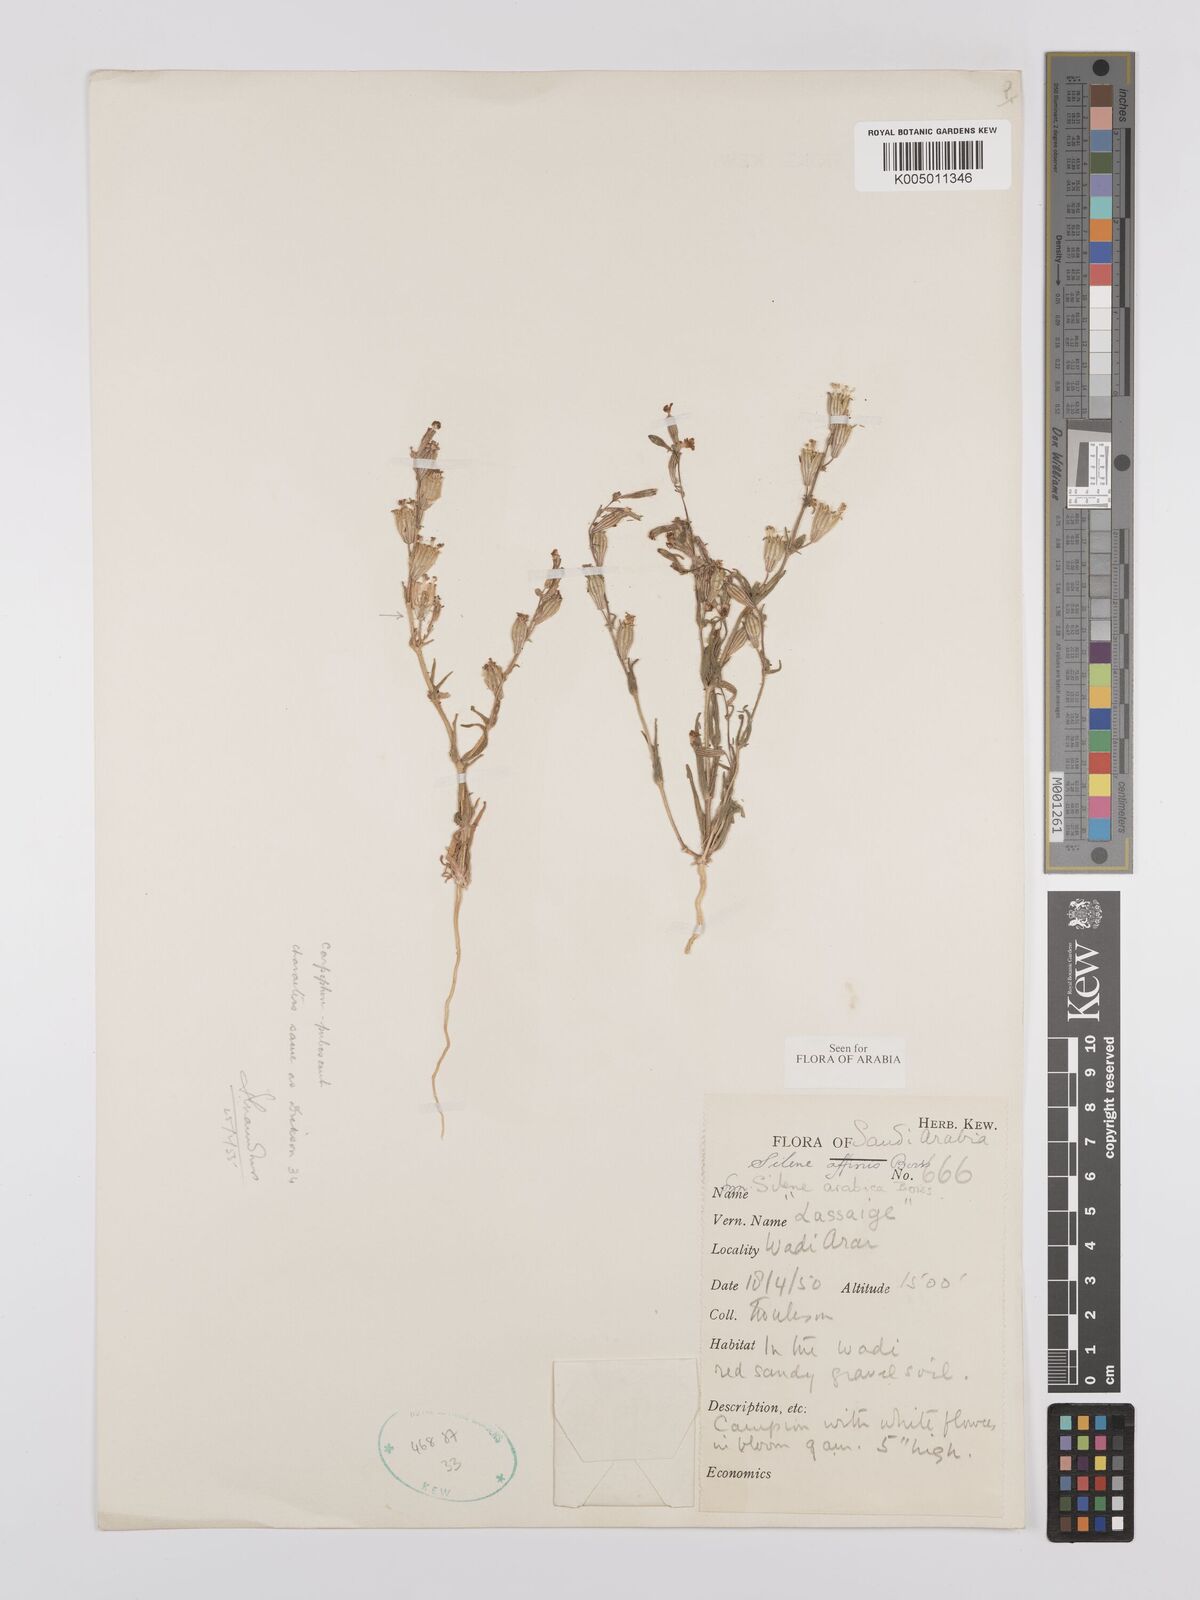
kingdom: Plantae
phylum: Tracheophyta
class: Magnoliopsida
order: Caryophyllales
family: Caryophyllaceae
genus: Silene
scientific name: Silene arabica
